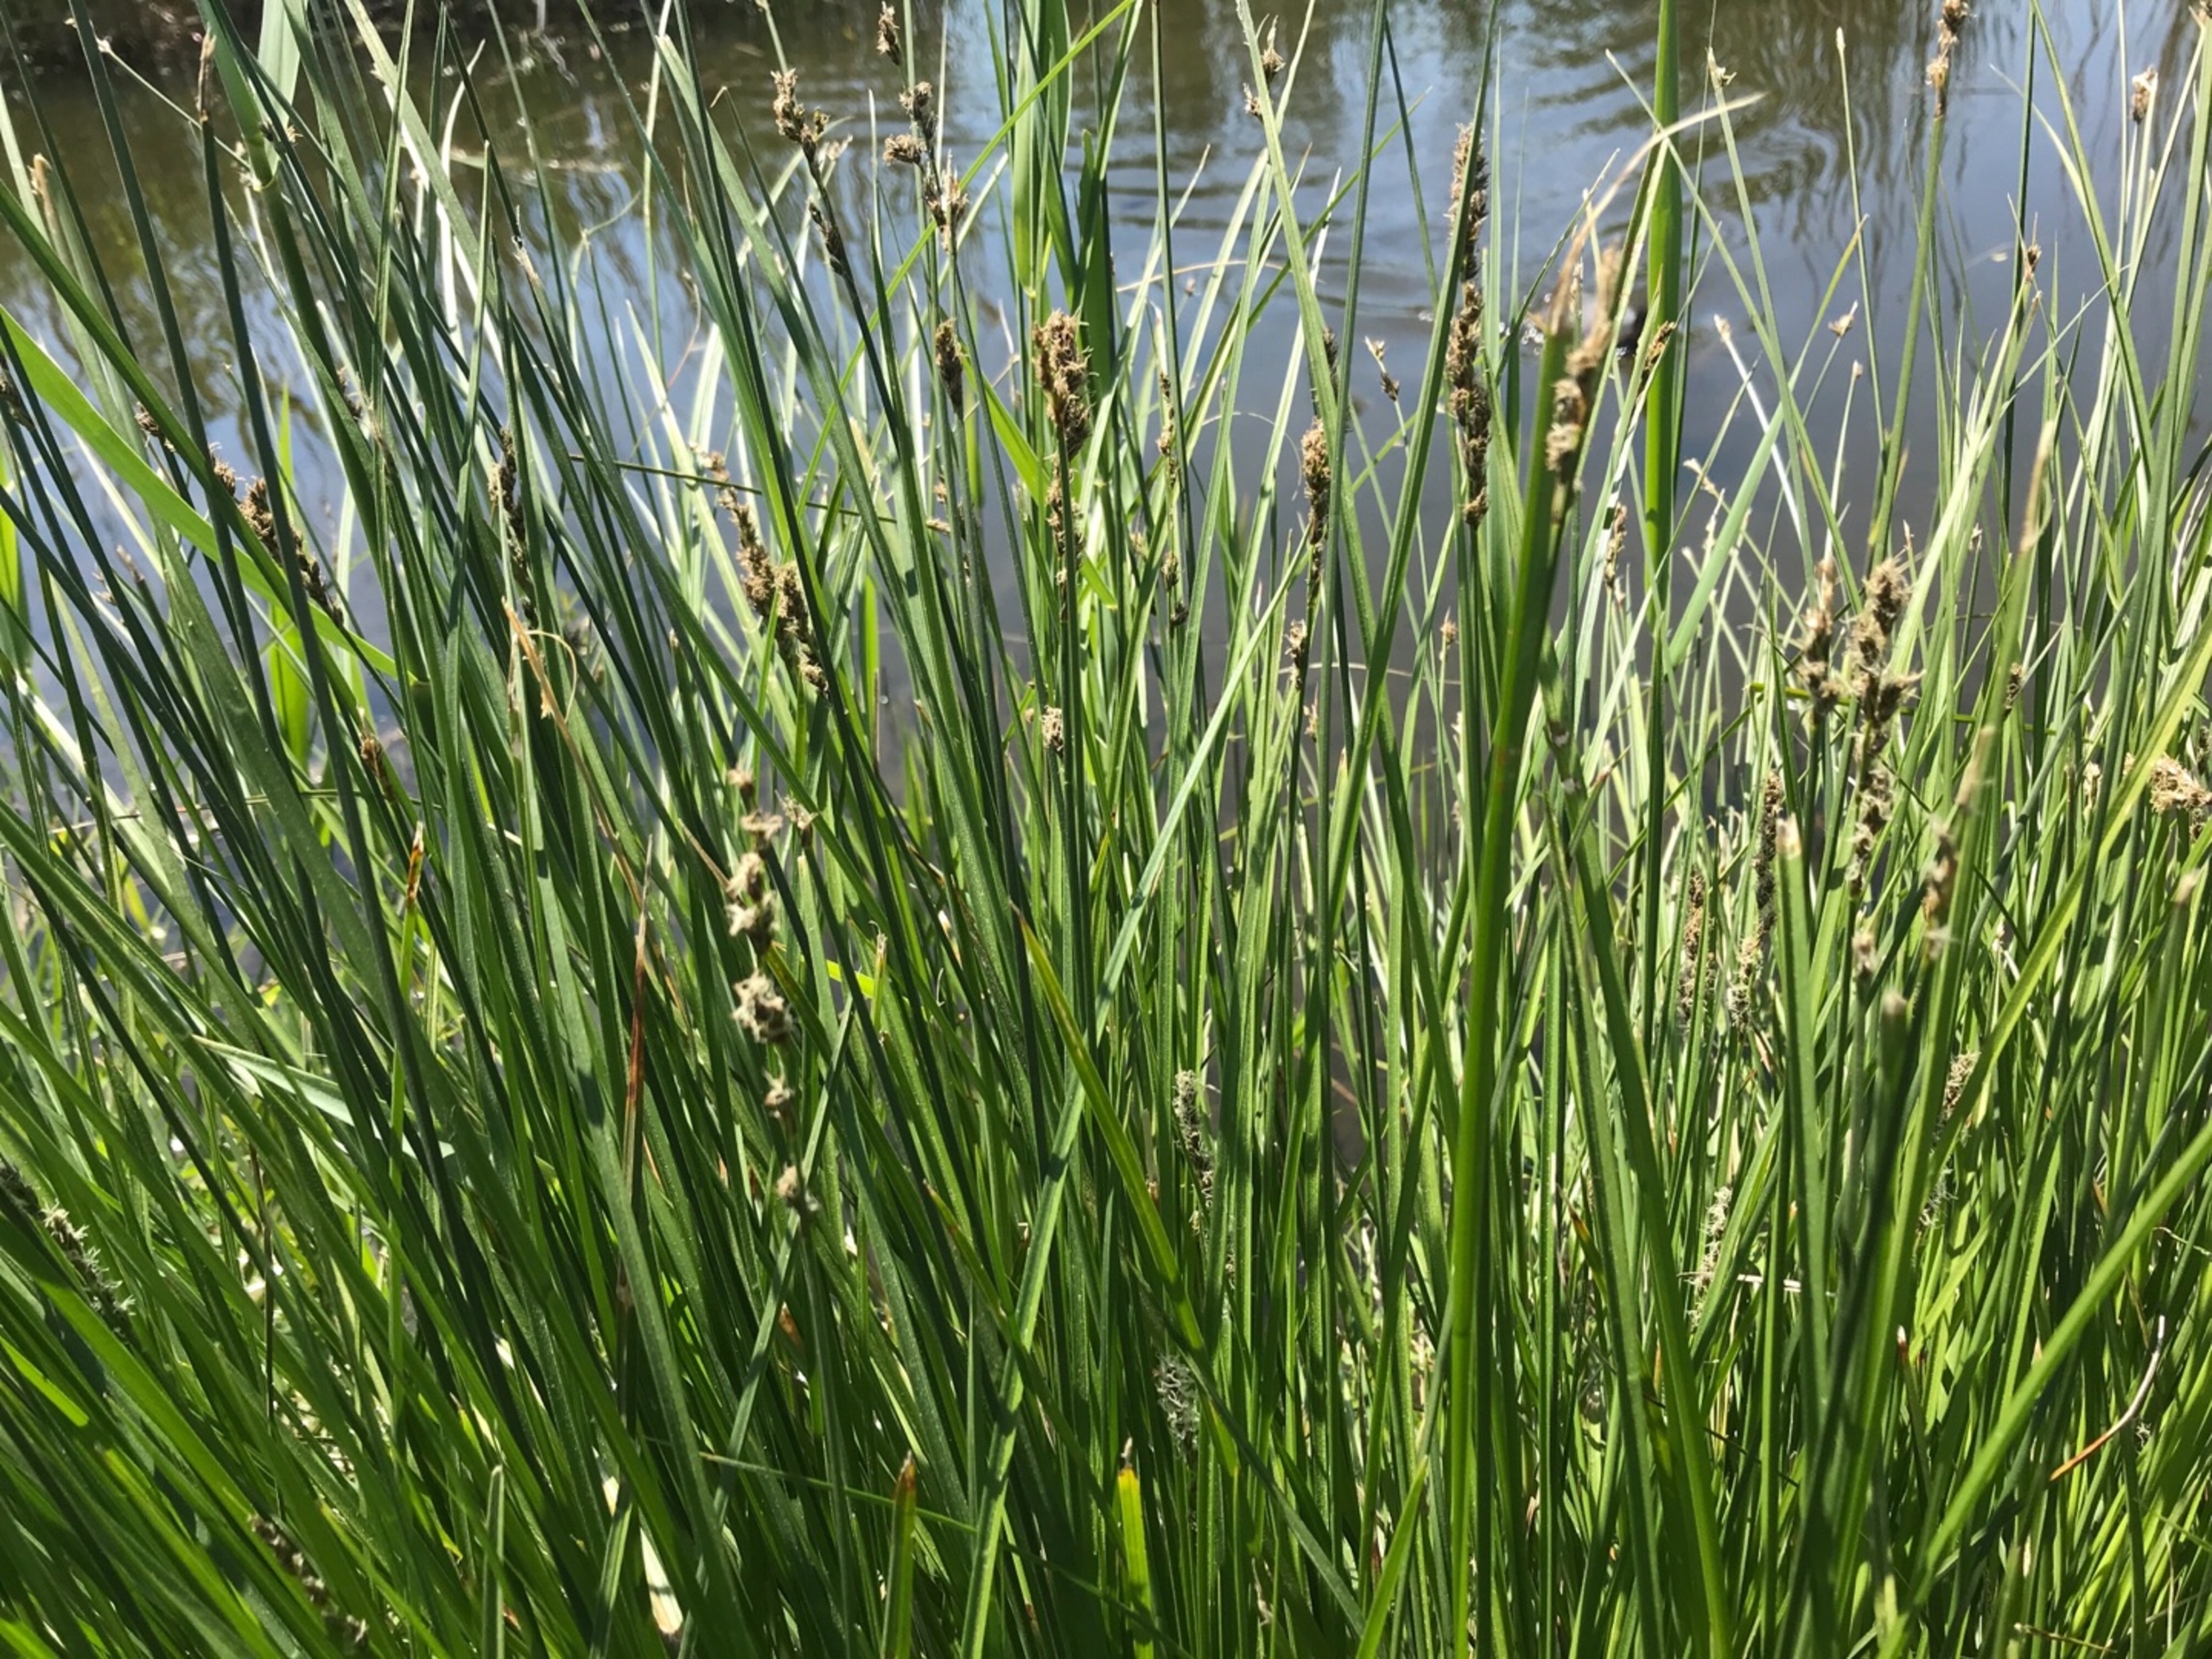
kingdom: Plantae
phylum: Tracheophyta
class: Liliopsida
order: Poales
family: Cyperaceae
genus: Carex
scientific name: Carex paniculata
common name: Top-star
